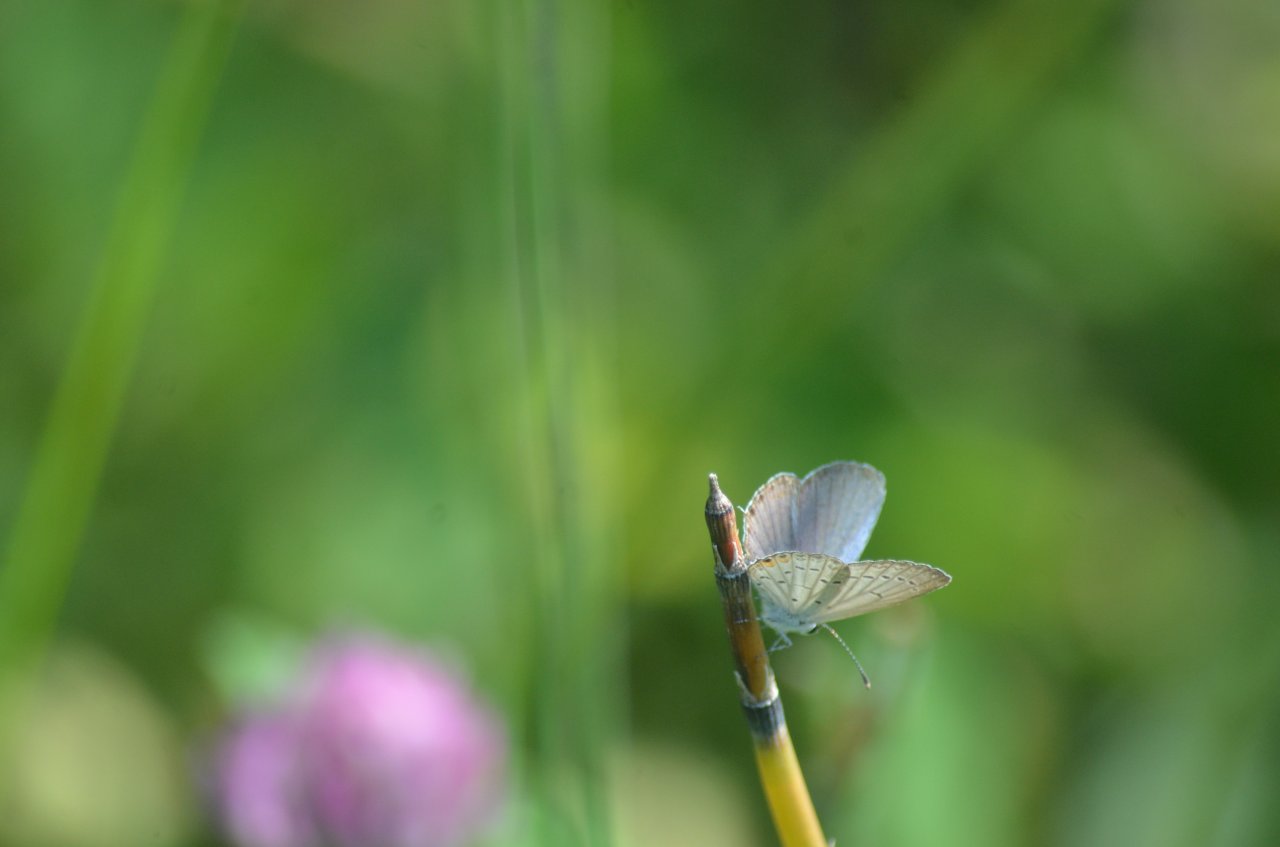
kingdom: Animalia
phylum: Arthropoda
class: Insecta
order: Lepidoptera
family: Lycaenidae
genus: Elkalyce
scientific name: Elkalyce comyntas
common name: Eastern Tailed-Blue
